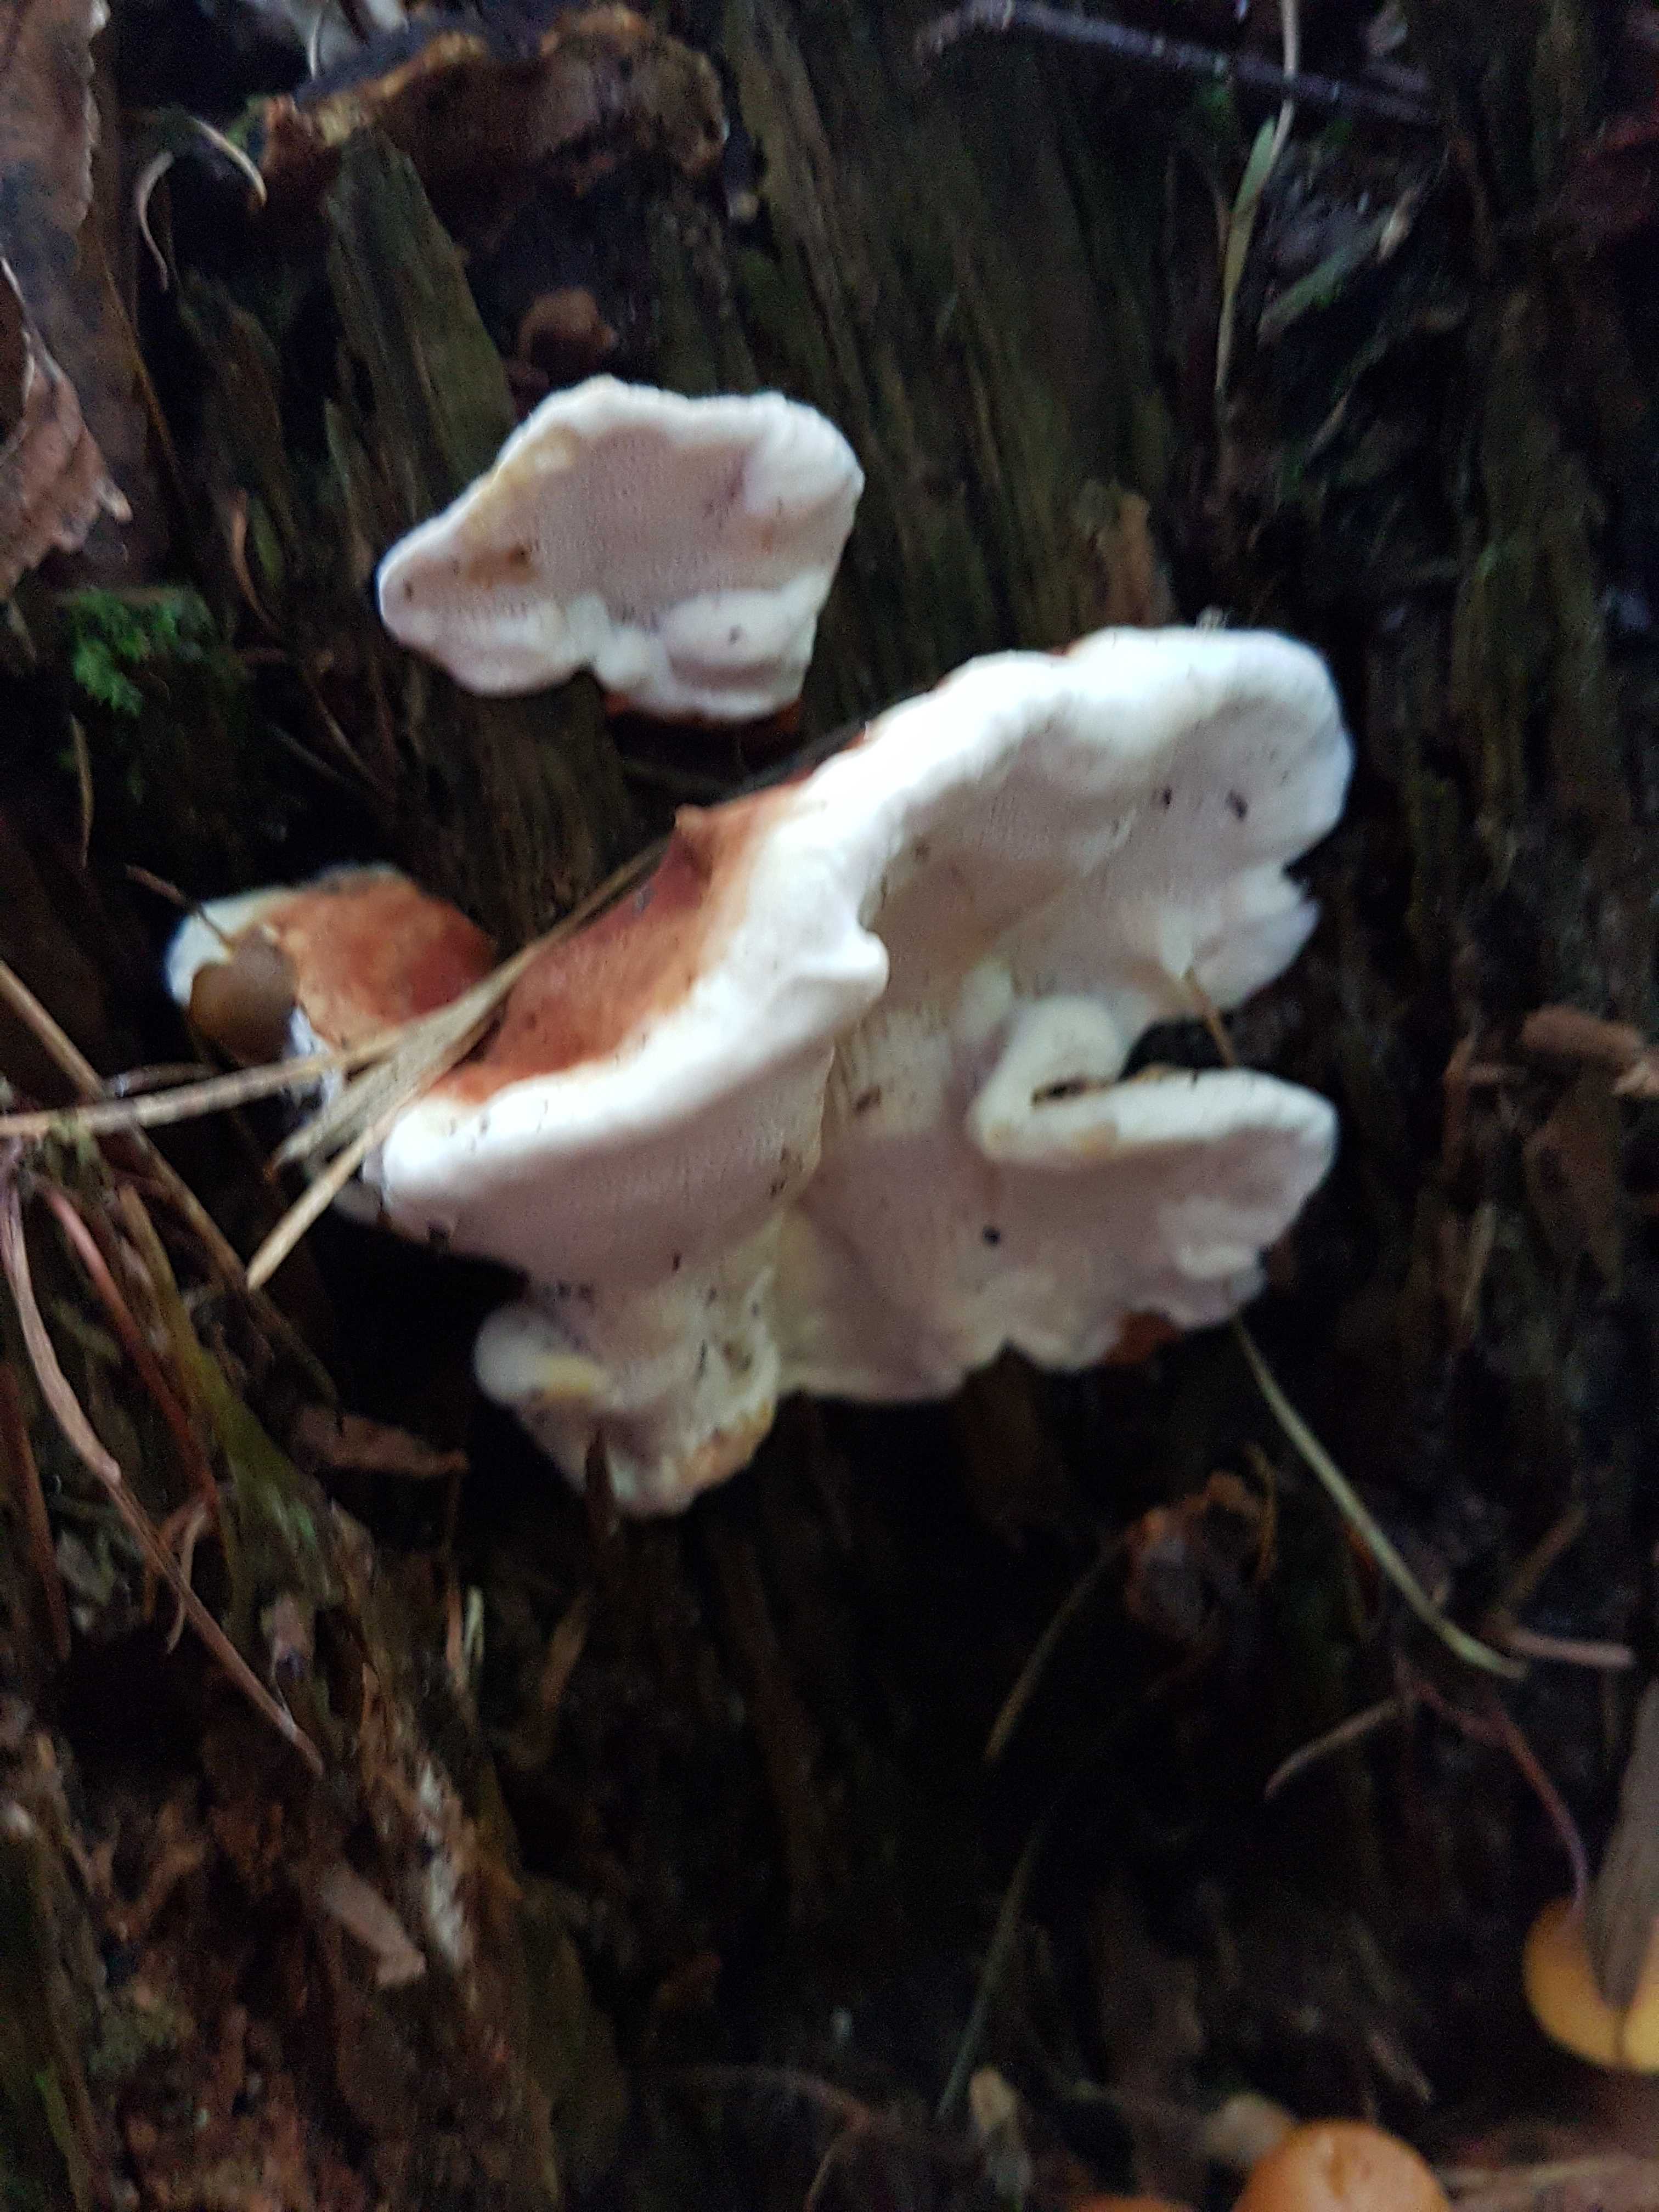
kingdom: Fungi
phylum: Basidiomycota
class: Agaricomycetes
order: Russulales
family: Bondarzewiaceae
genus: Heterobasidion
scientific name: Heterobasidion
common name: rodfordærver
